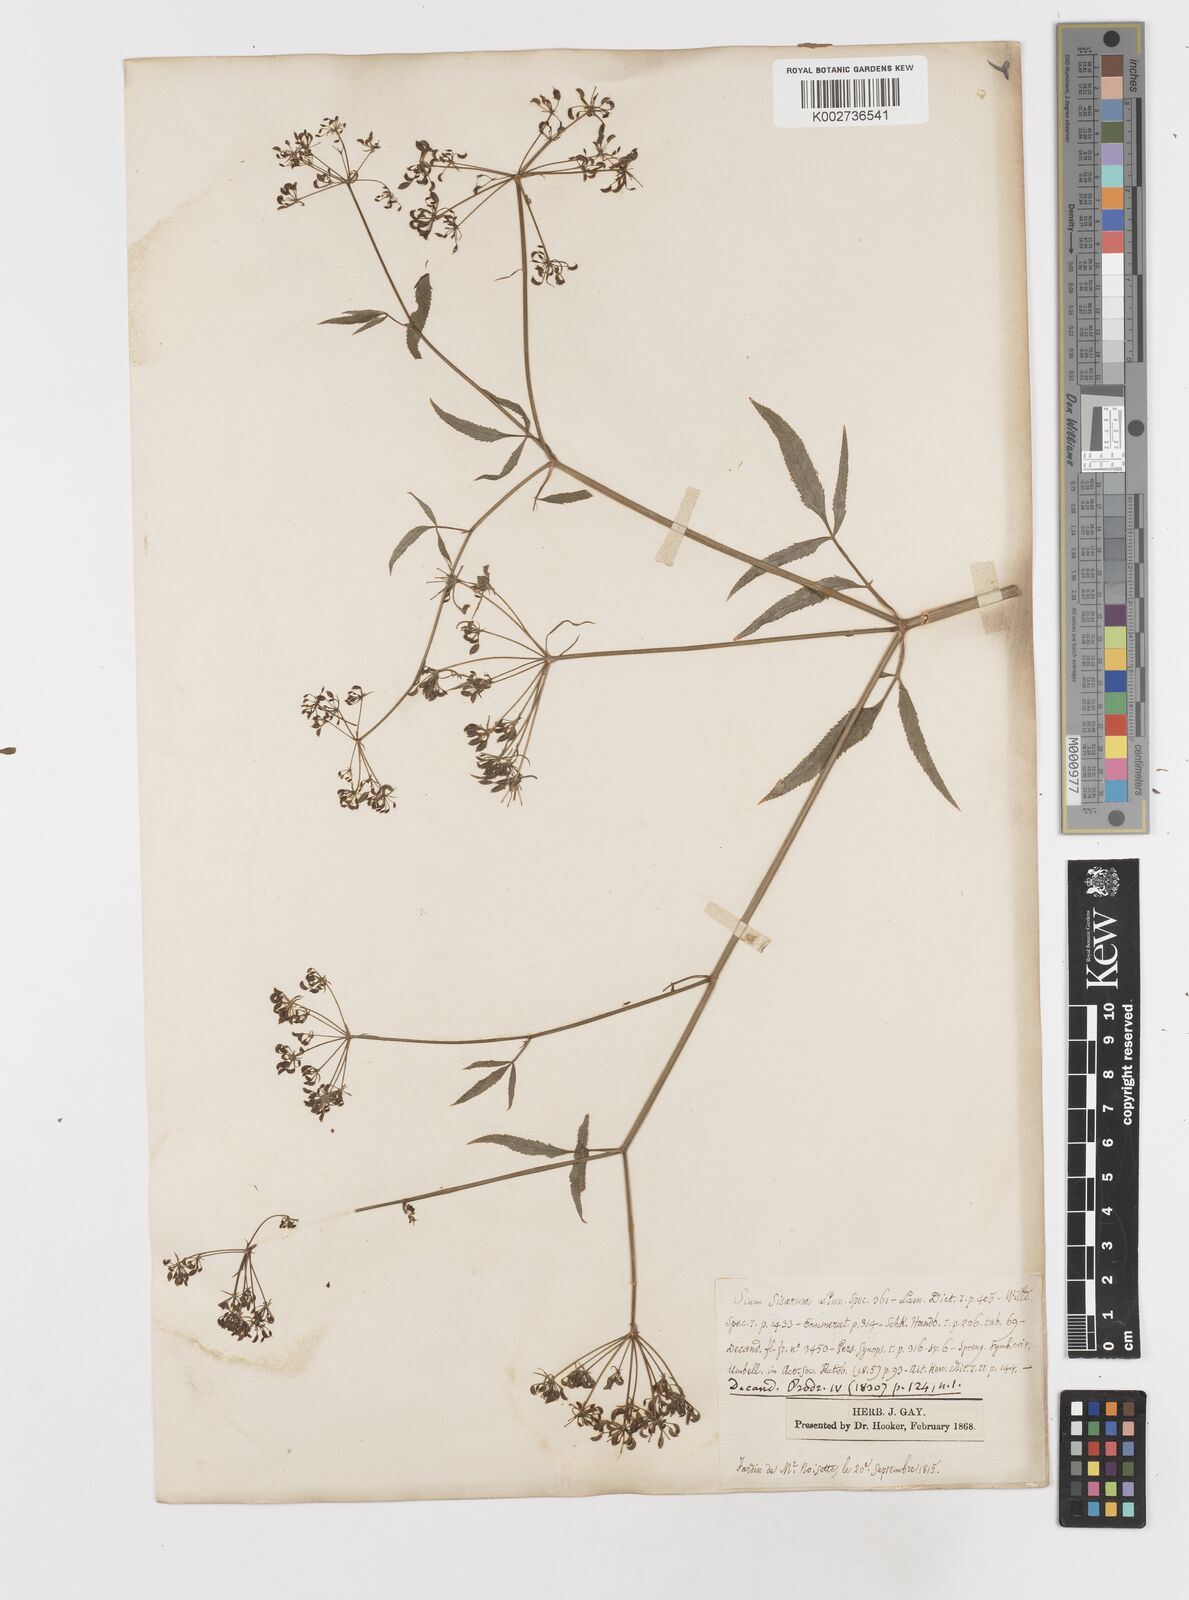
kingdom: Plantae
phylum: Tracheophyta
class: Magnoliopsida
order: Apiales
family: Apiaceae
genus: Sium
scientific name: Sium sisarum
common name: Skirret
